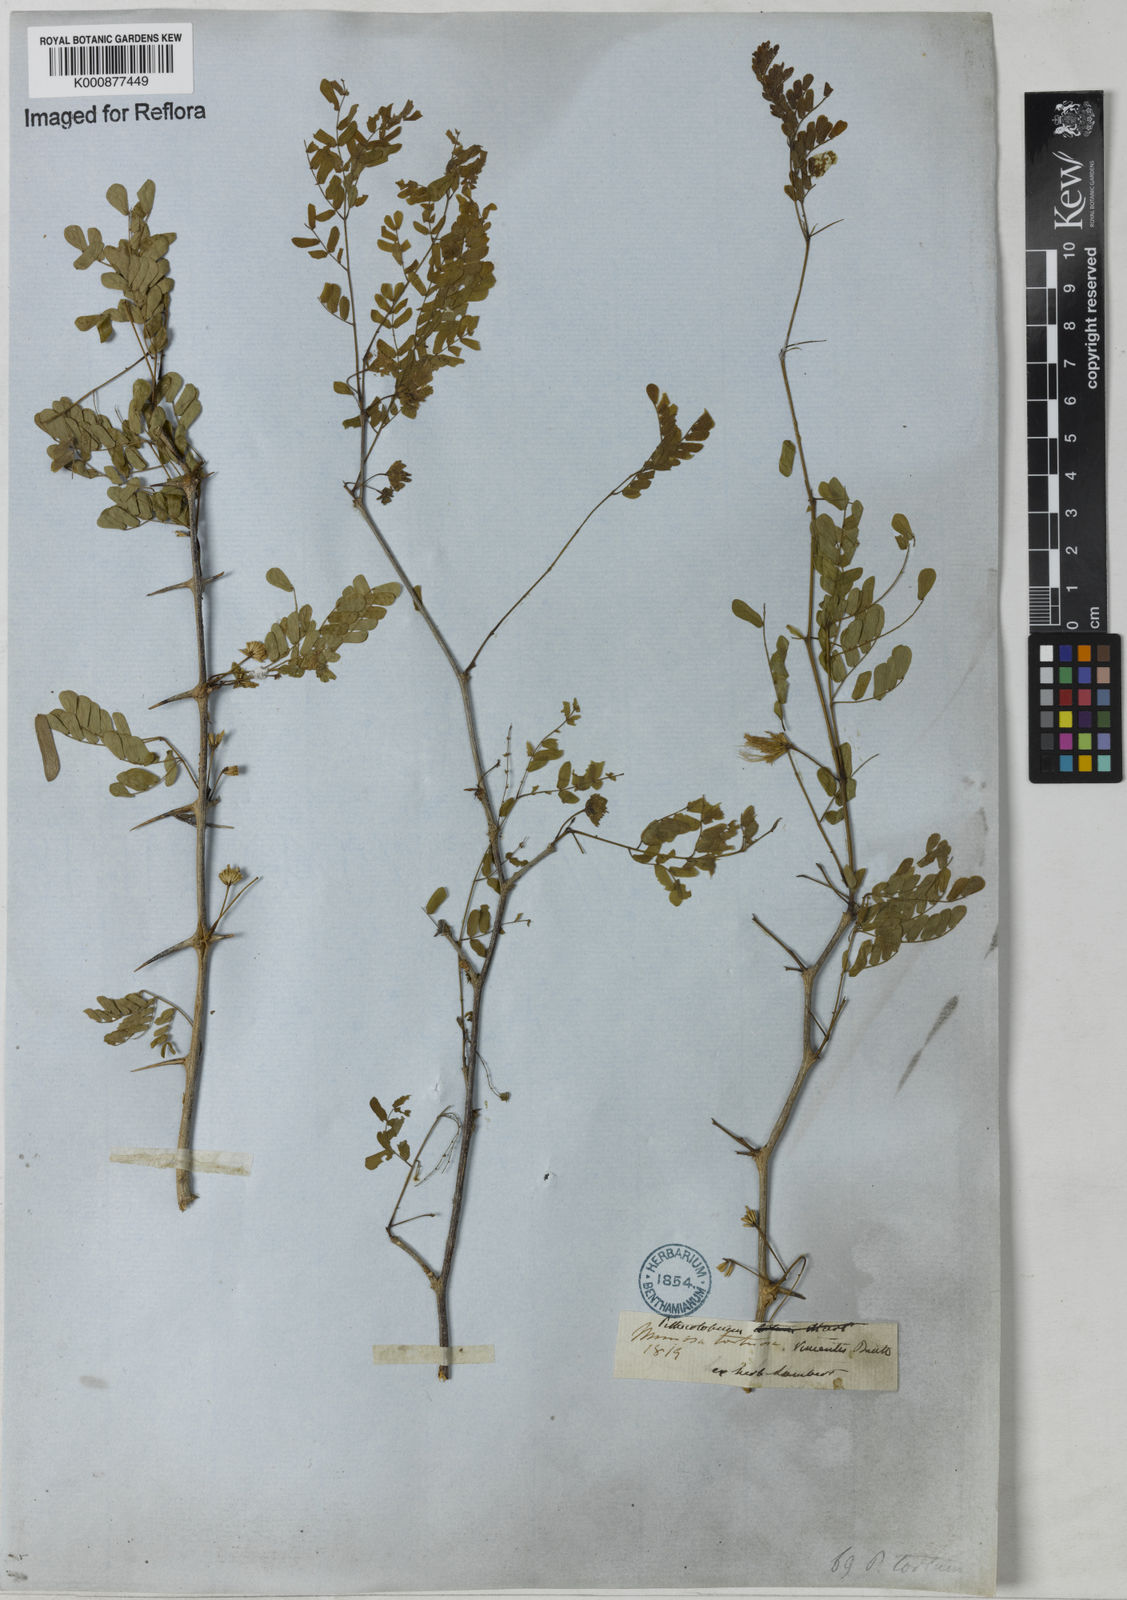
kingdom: Plantae
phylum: Tracheophyta
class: Magnoliopsida
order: Fabales
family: Fabaceae
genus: Chloroleucon
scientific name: Chloroleucon tortum
